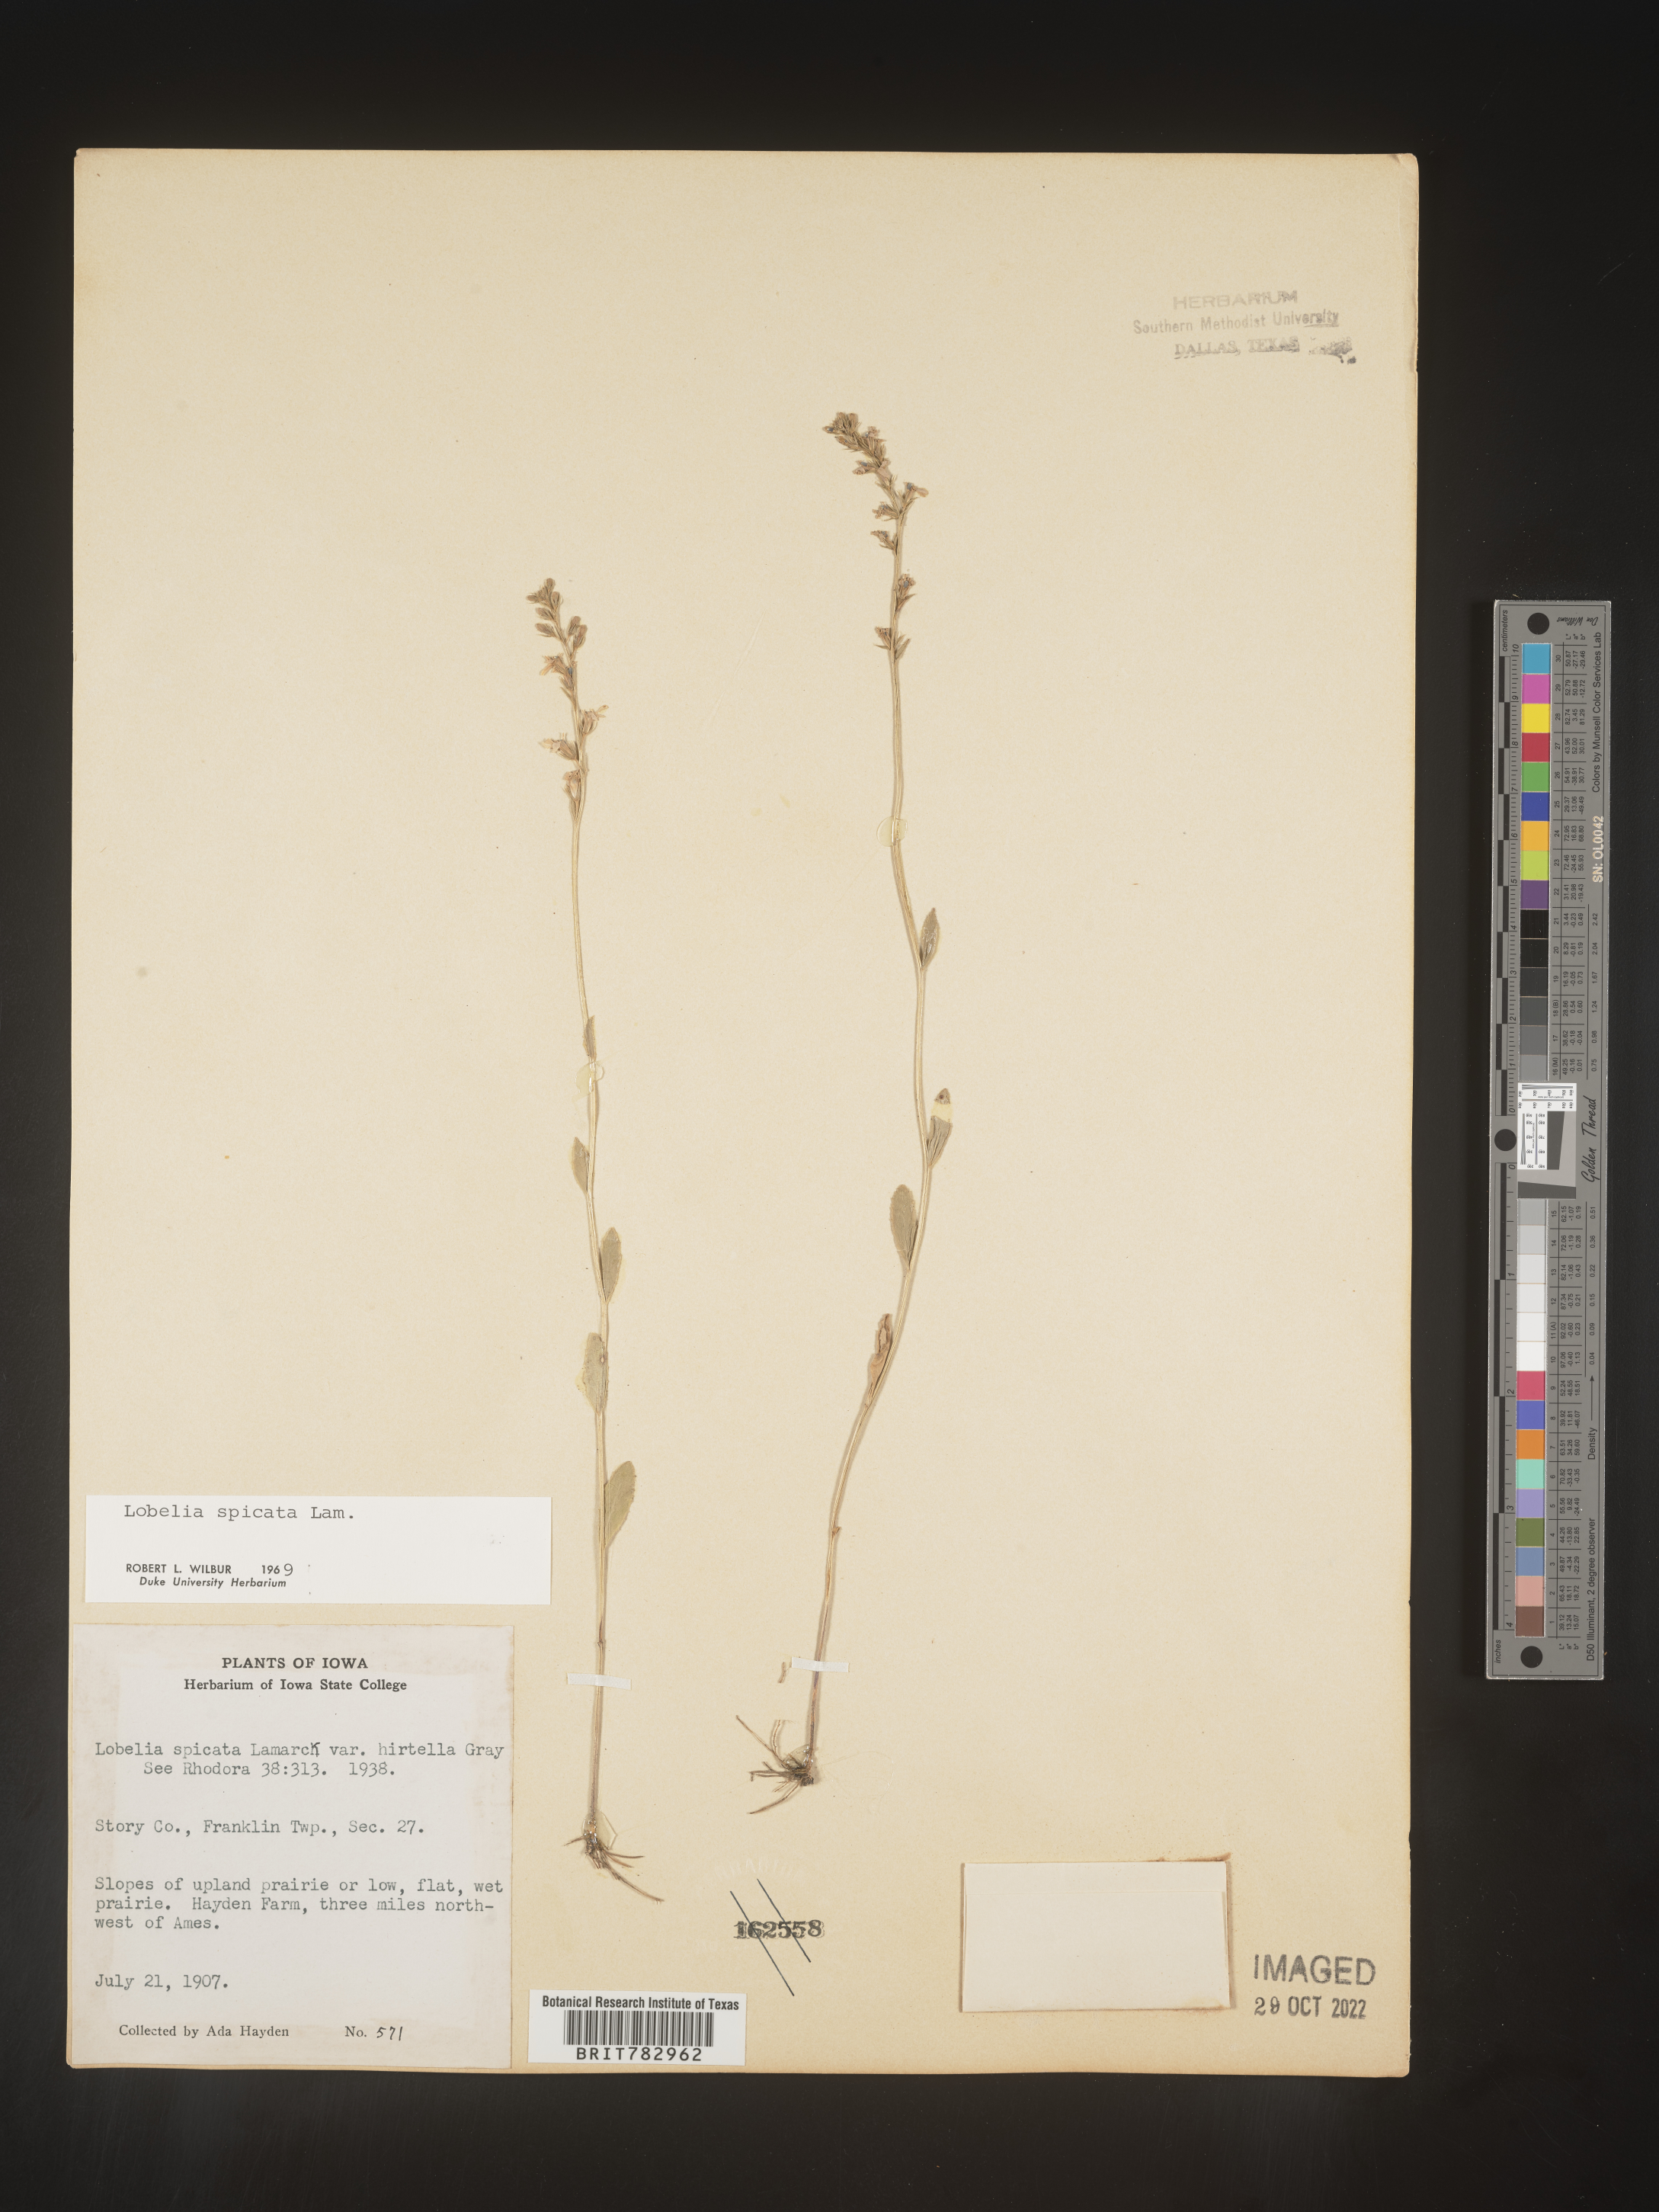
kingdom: Plantae
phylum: Tracheophyta
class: Magnoliopsida
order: Asterales
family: Campanulaceae
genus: Lobelia
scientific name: Lobelia spicata
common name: Pale-spike lobelia
